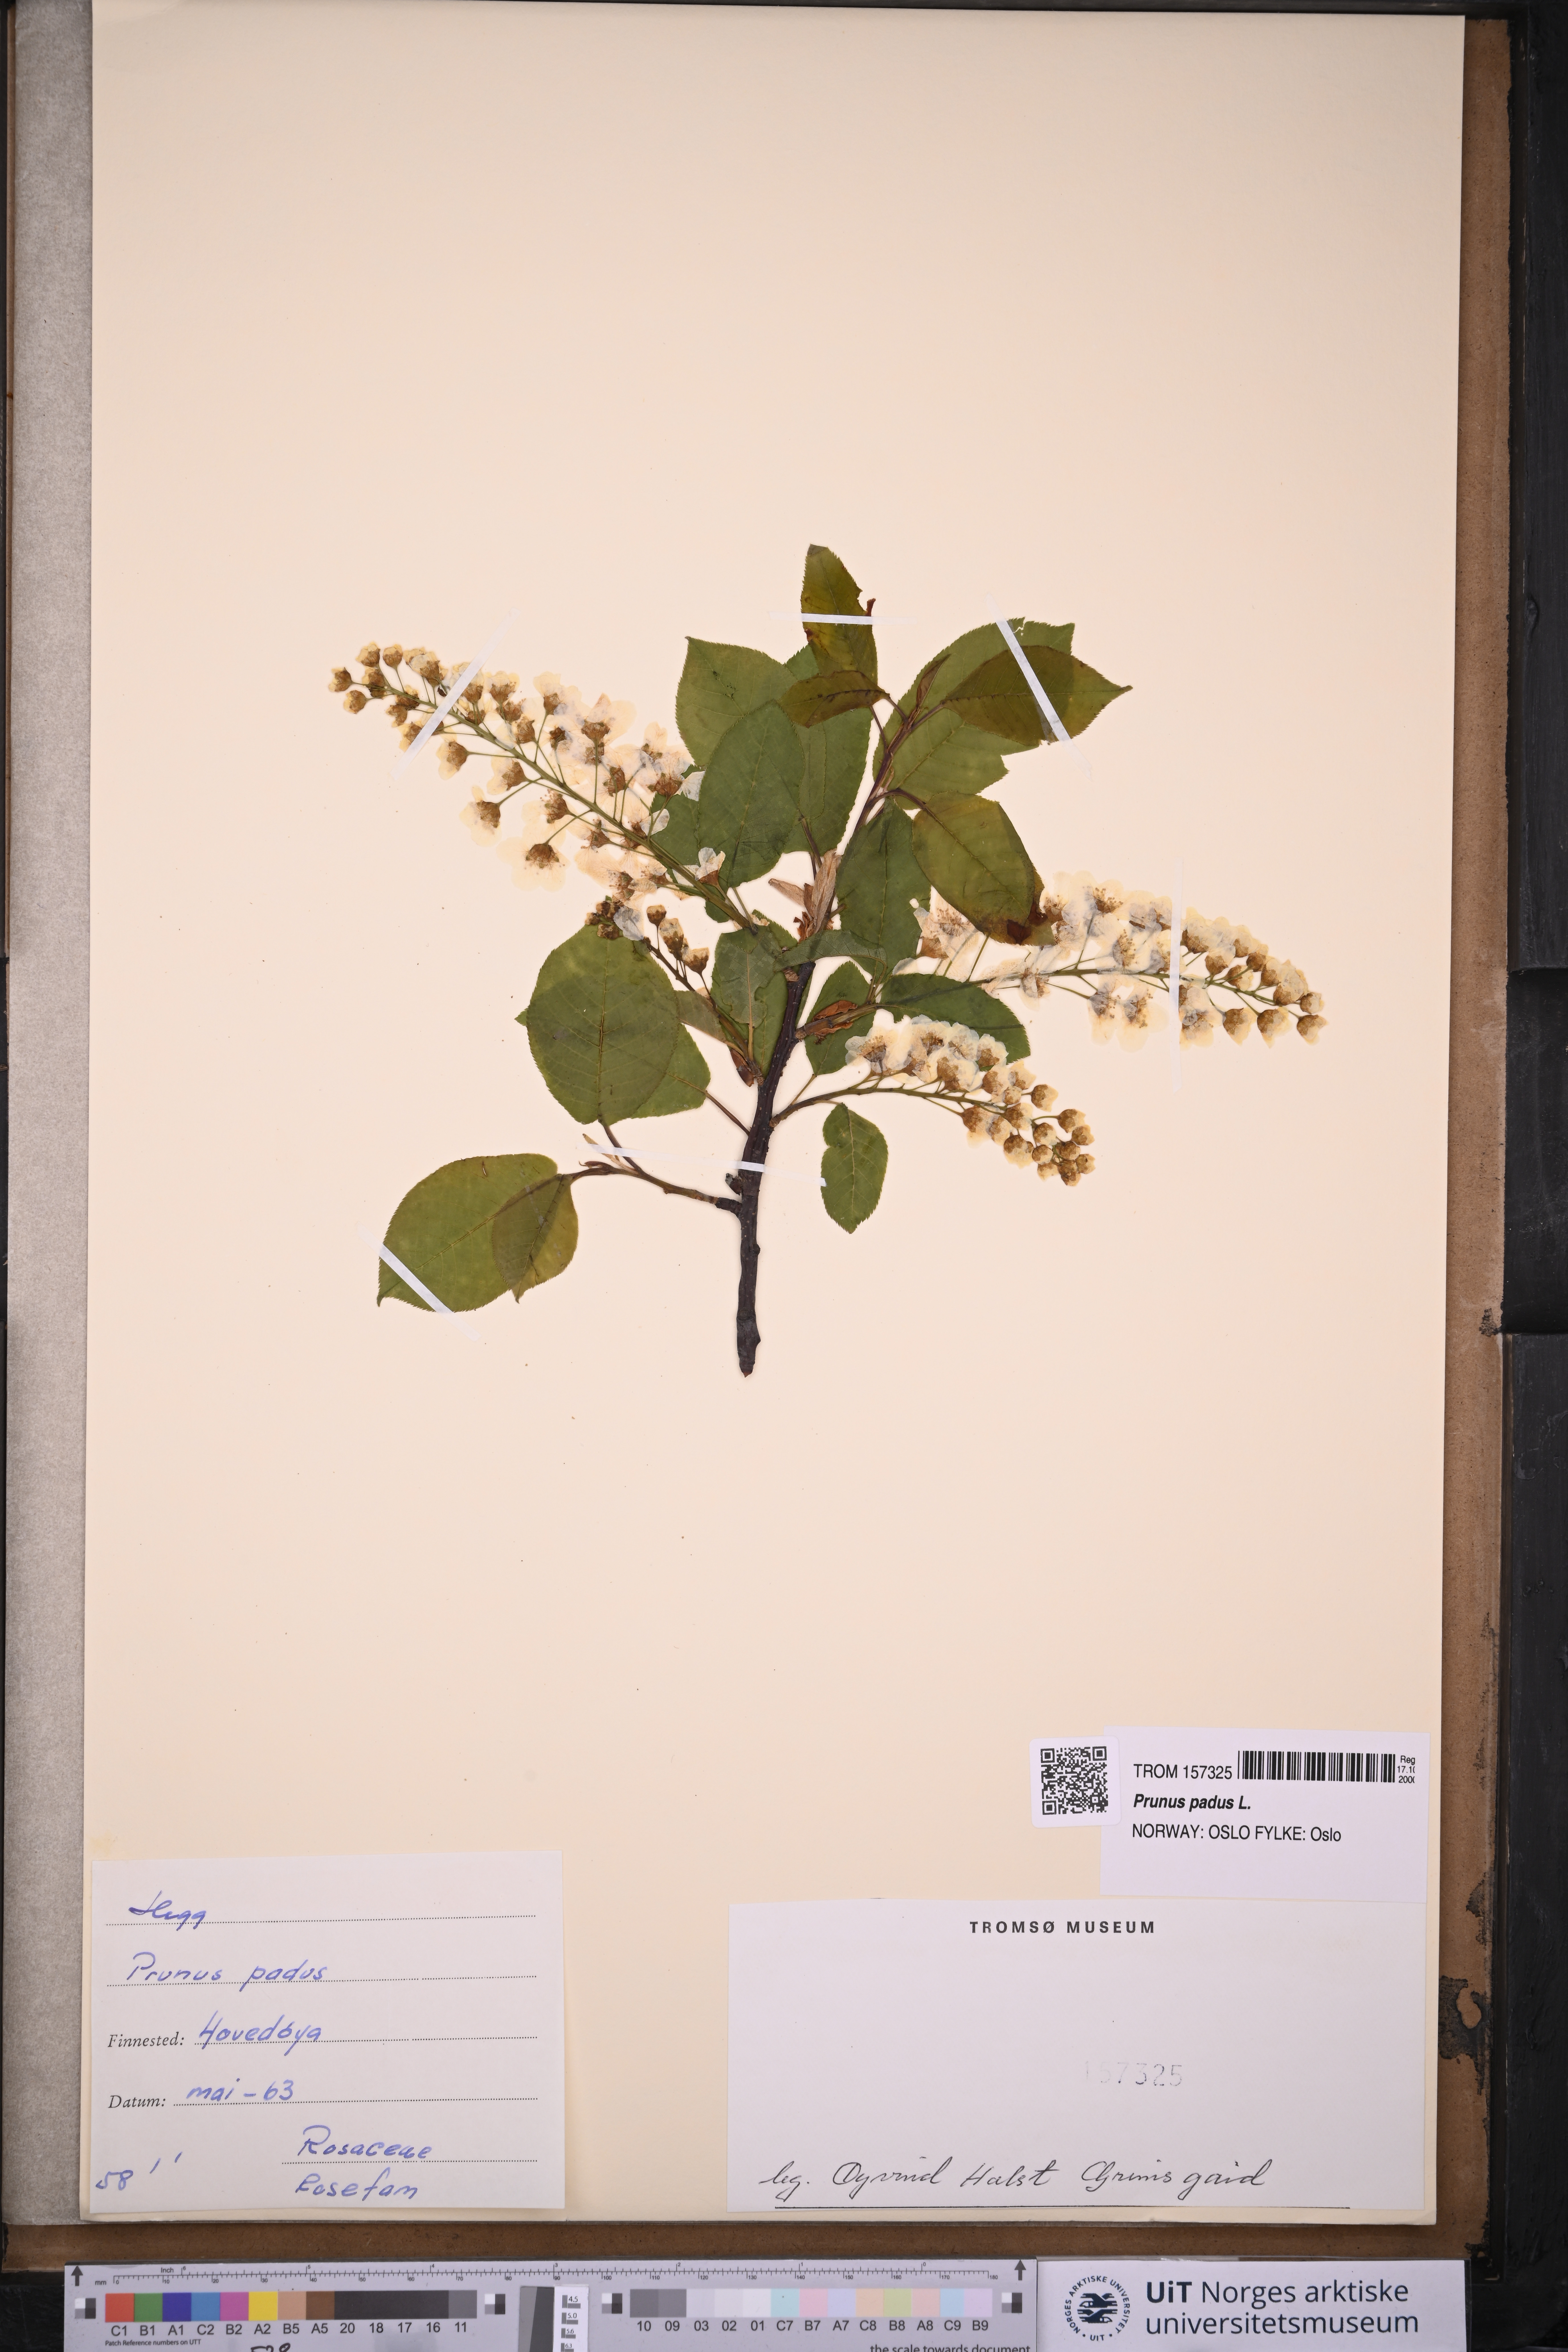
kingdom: Plantae
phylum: Tracheophyta
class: Magnoliopsida
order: Rosales
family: Rosaceae
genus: Prunus
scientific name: Prunus padus
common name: Bird cherry
